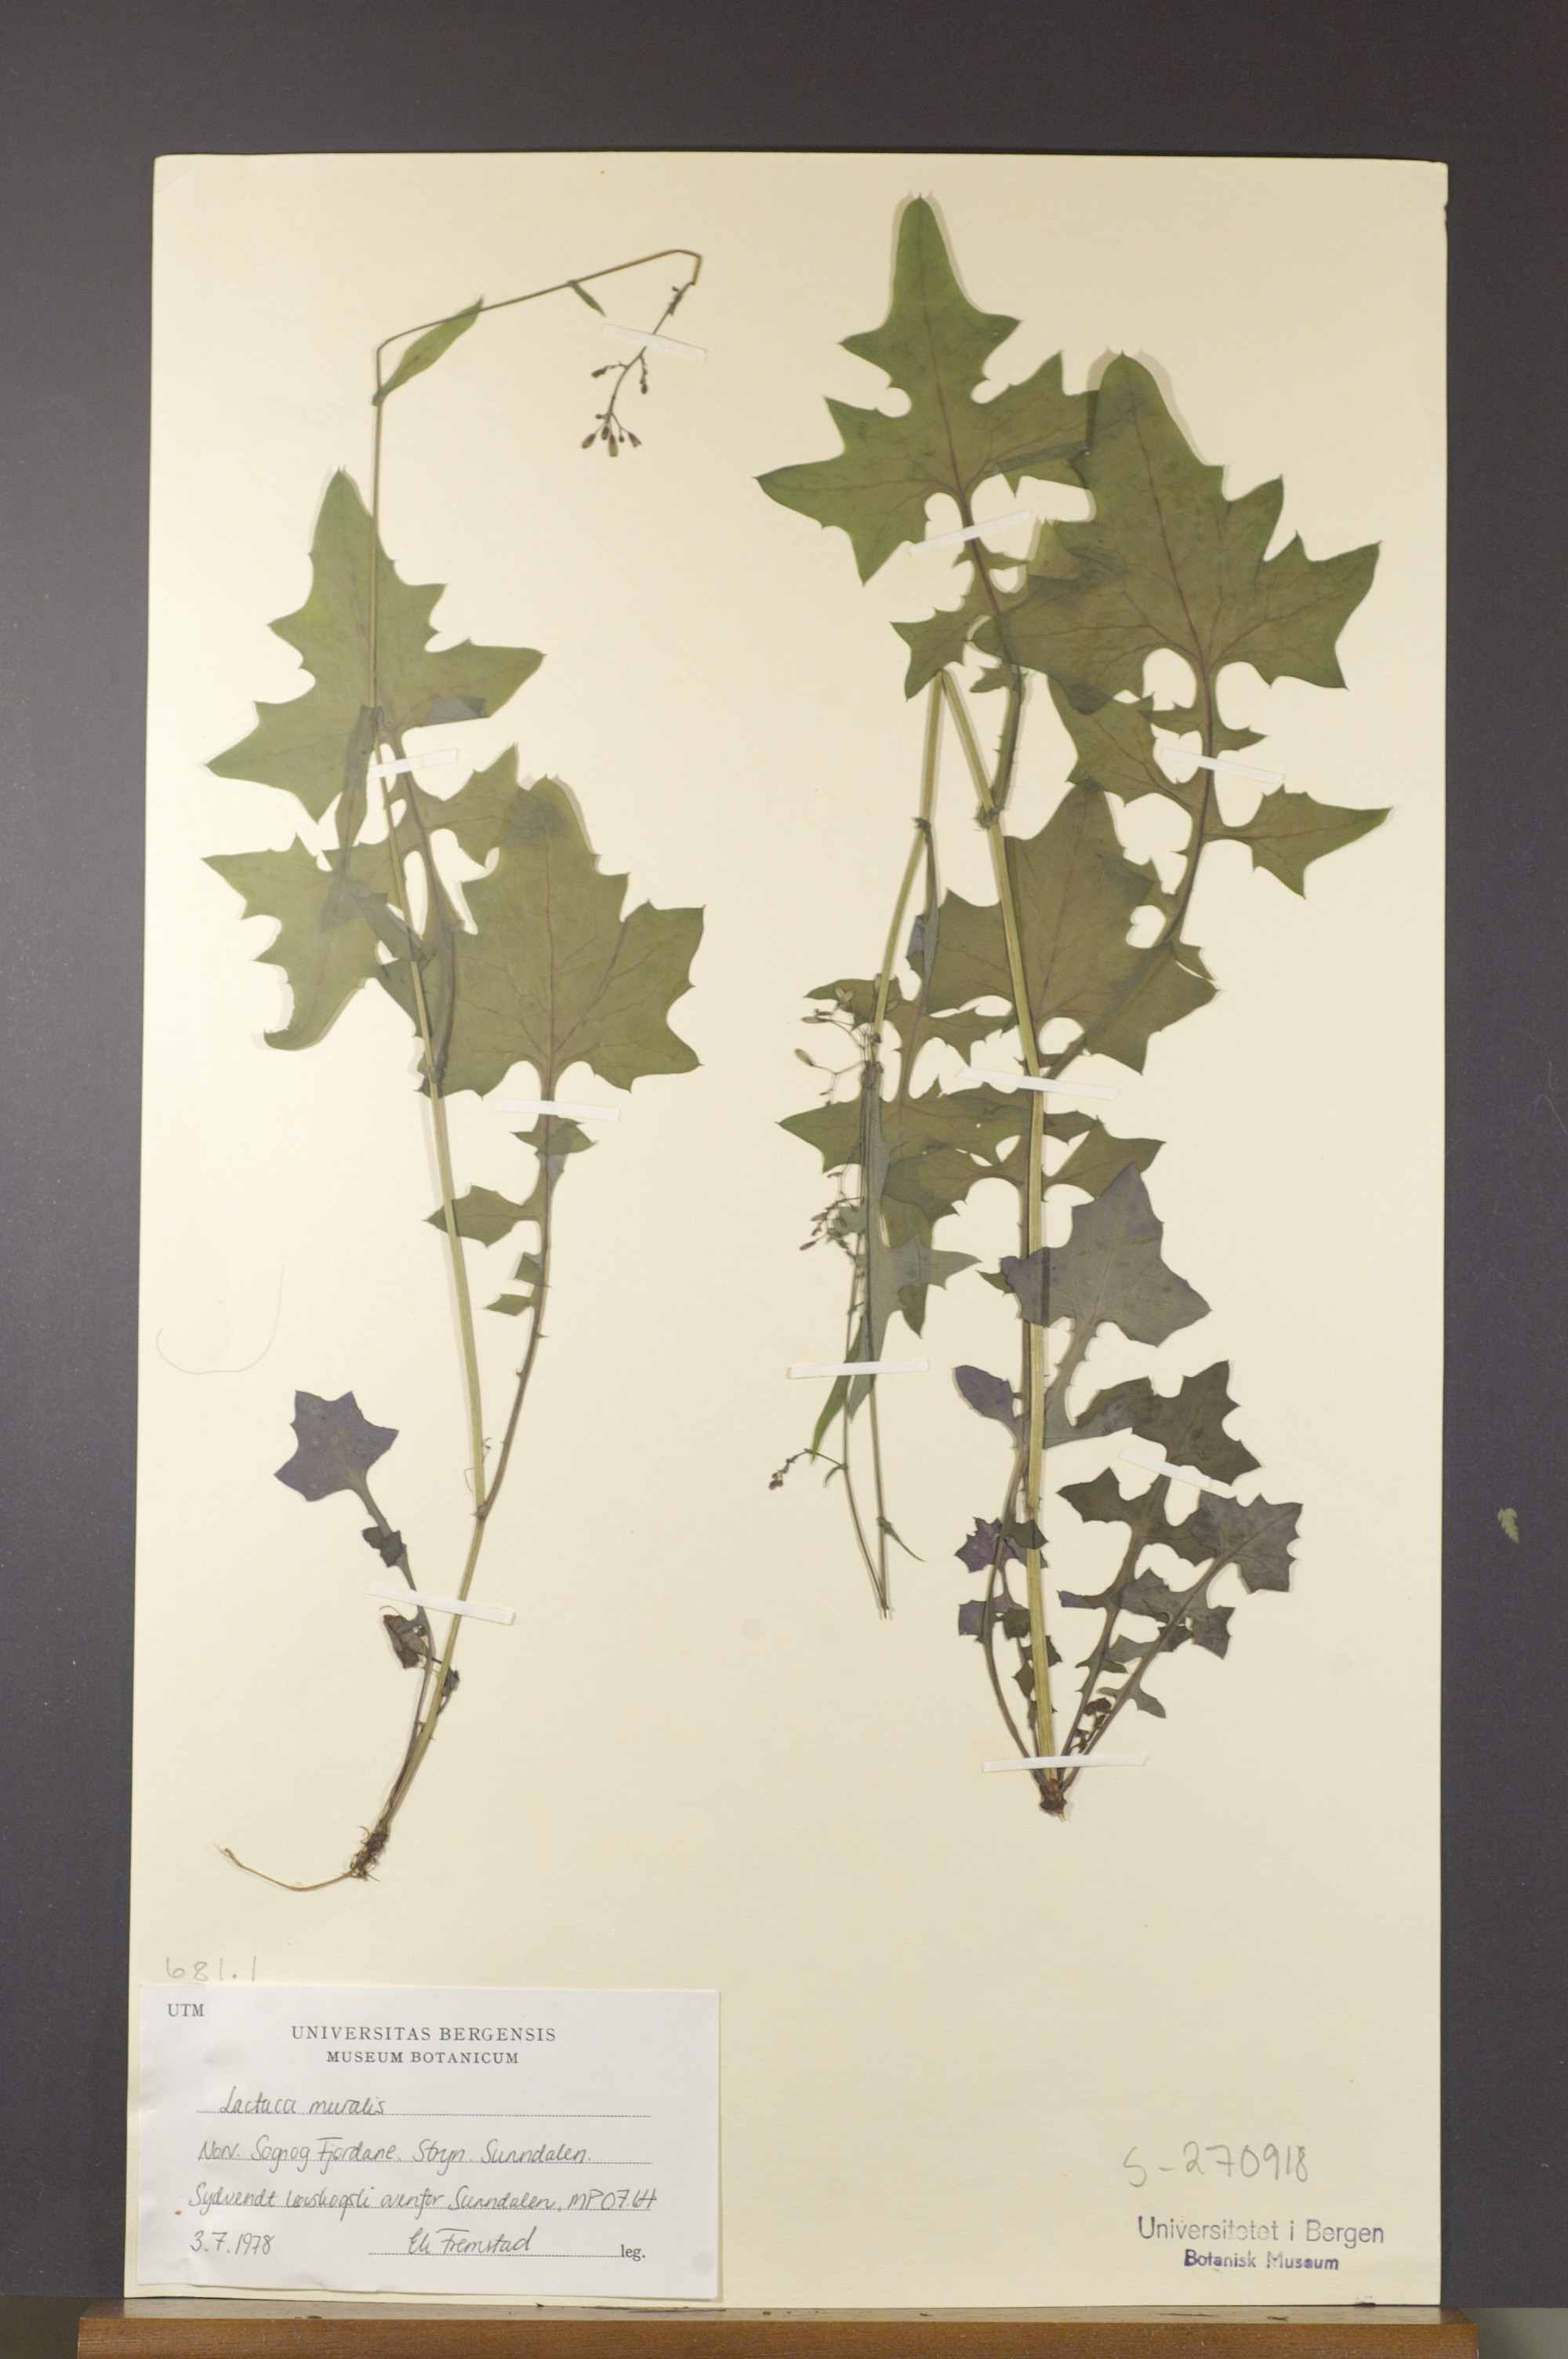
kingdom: Plantae
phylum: Tracheophyta
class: Magnoliopsida
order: Asterales
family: Asteraceae
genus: Mycelis
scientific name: Mycelis muralis
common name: Wall lettuce
